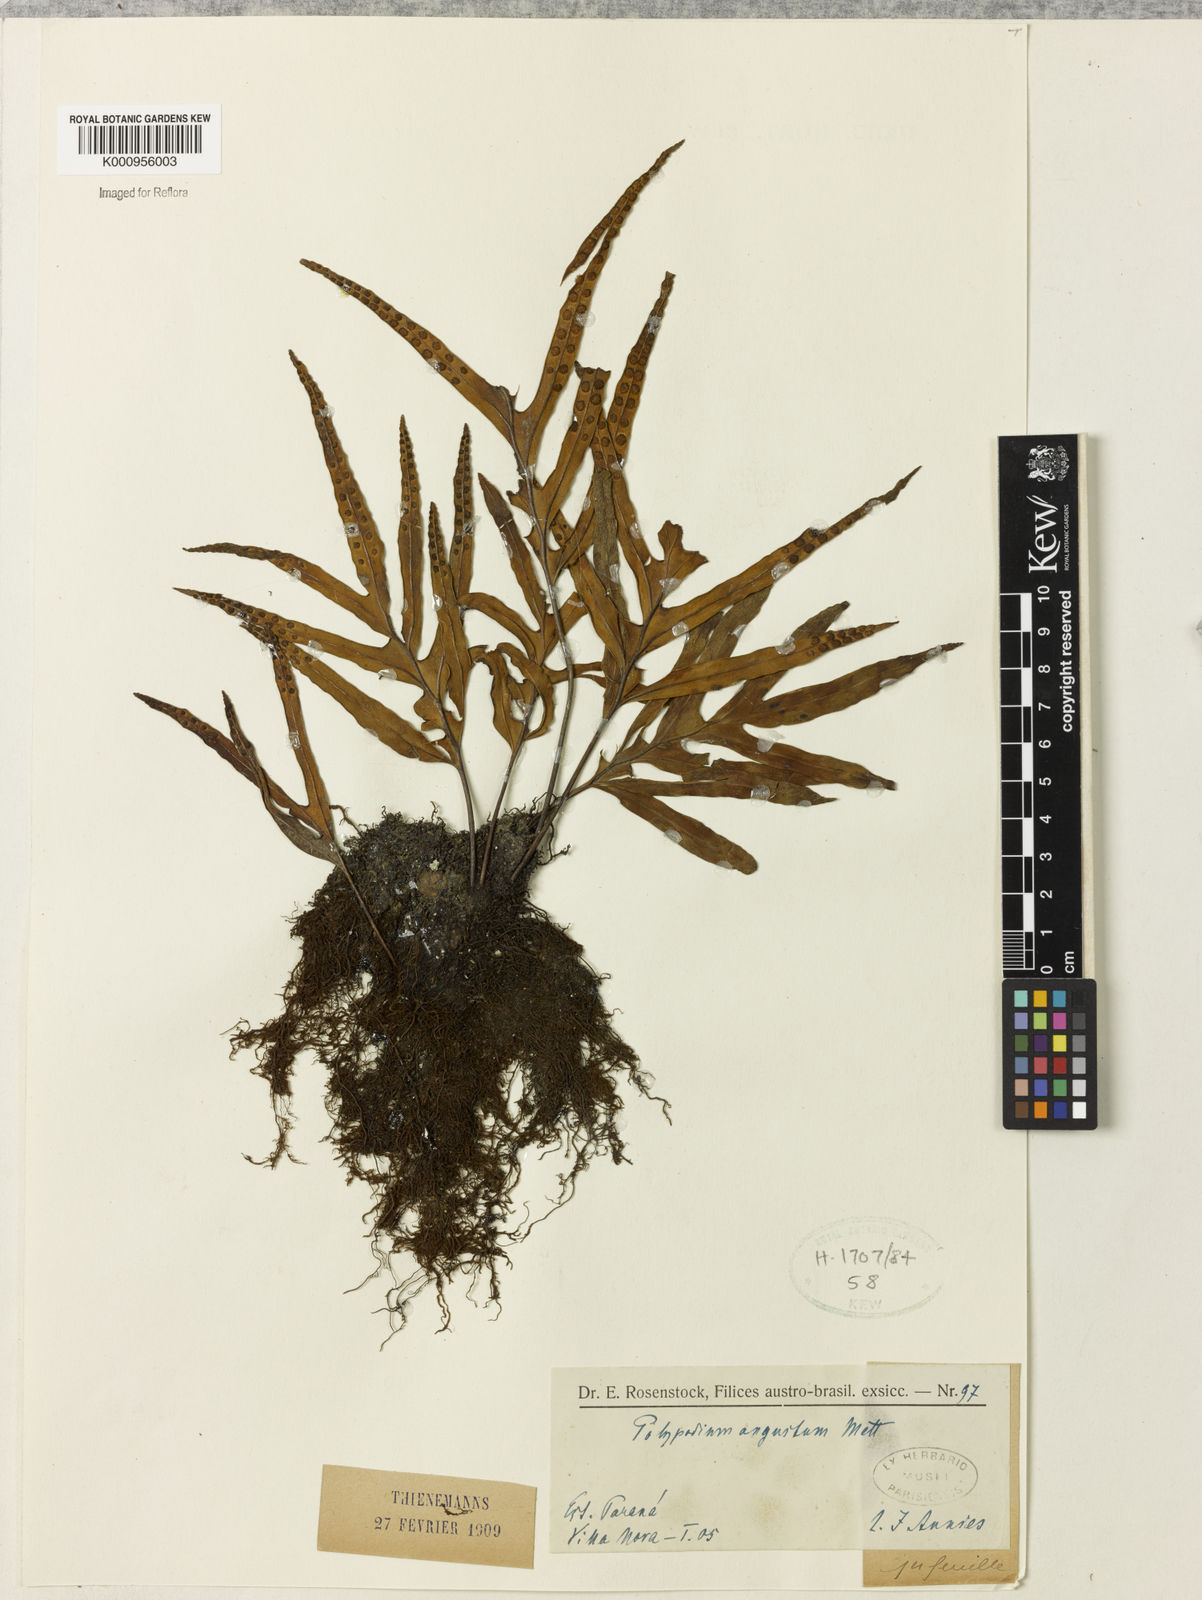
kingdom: Plantae
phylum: Tracheophyta
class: Polypodiopsida
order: Polypodiales
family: Polypodiaceae
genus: Pleopeltis
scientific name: Pleopeltis angusta
